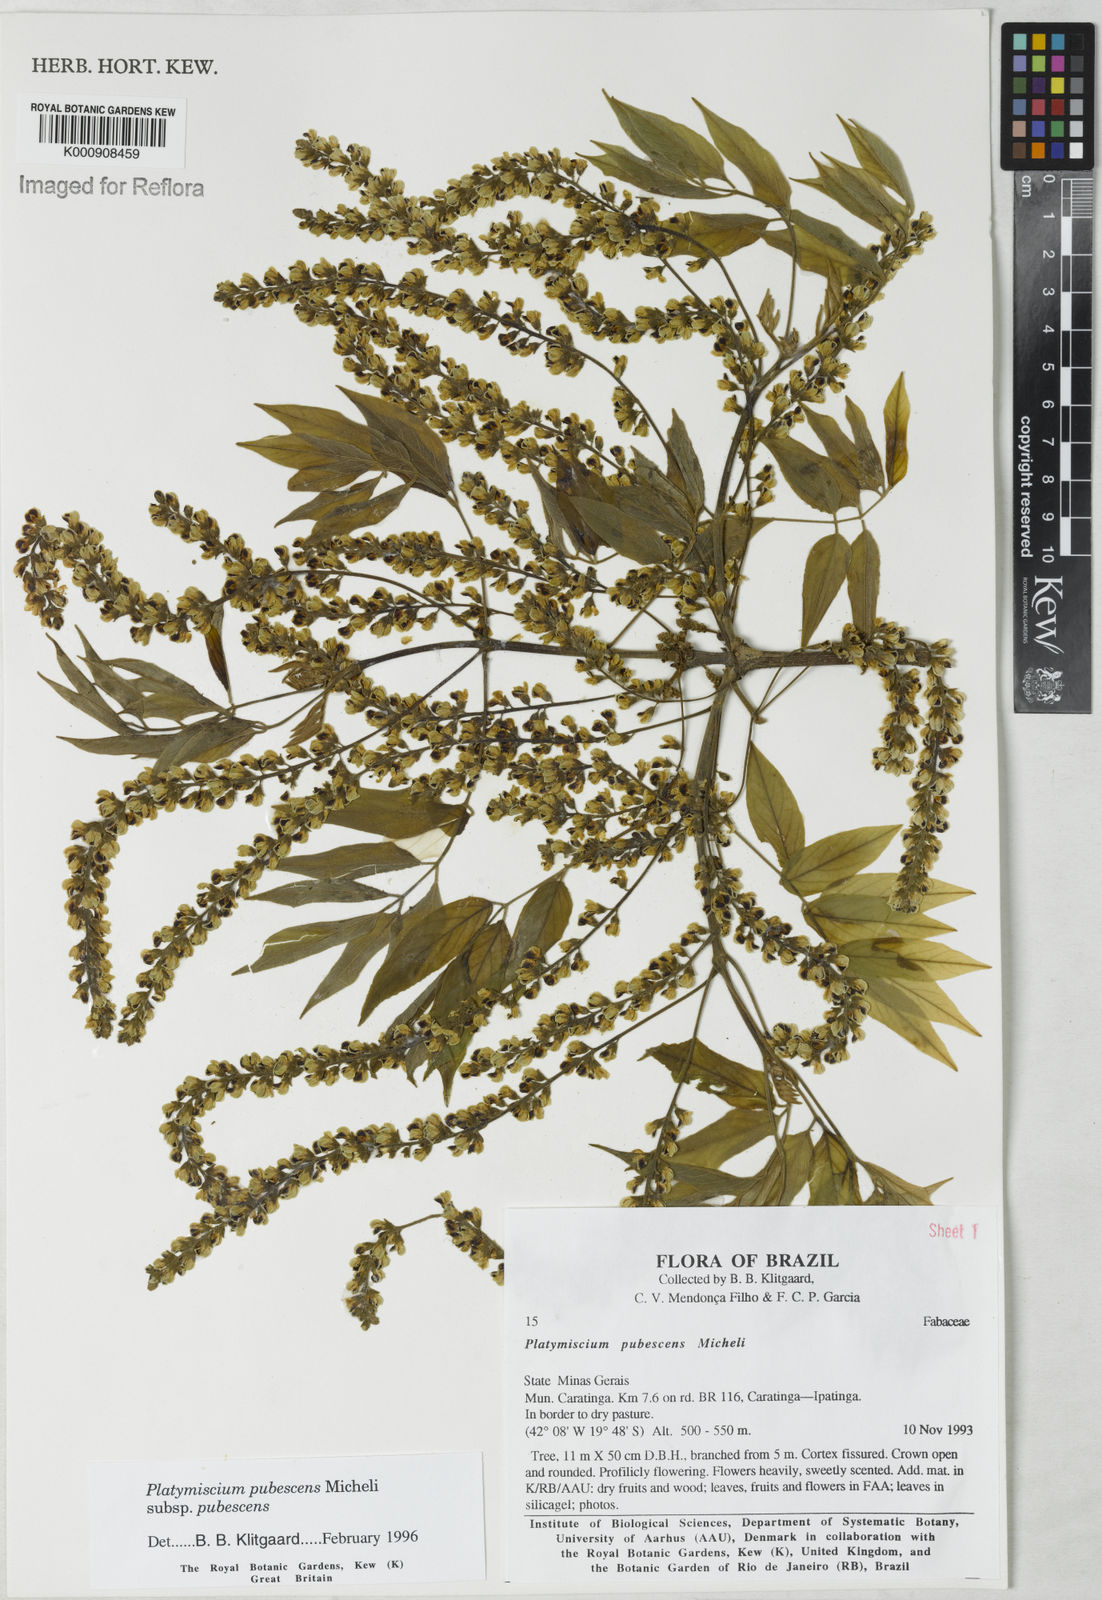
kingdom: Plantae
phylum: Tracheophyta
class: Magnoliopsida
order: Fabales
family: Fabaceae
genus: Platymiscium
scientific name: Platymiscium pubescens
